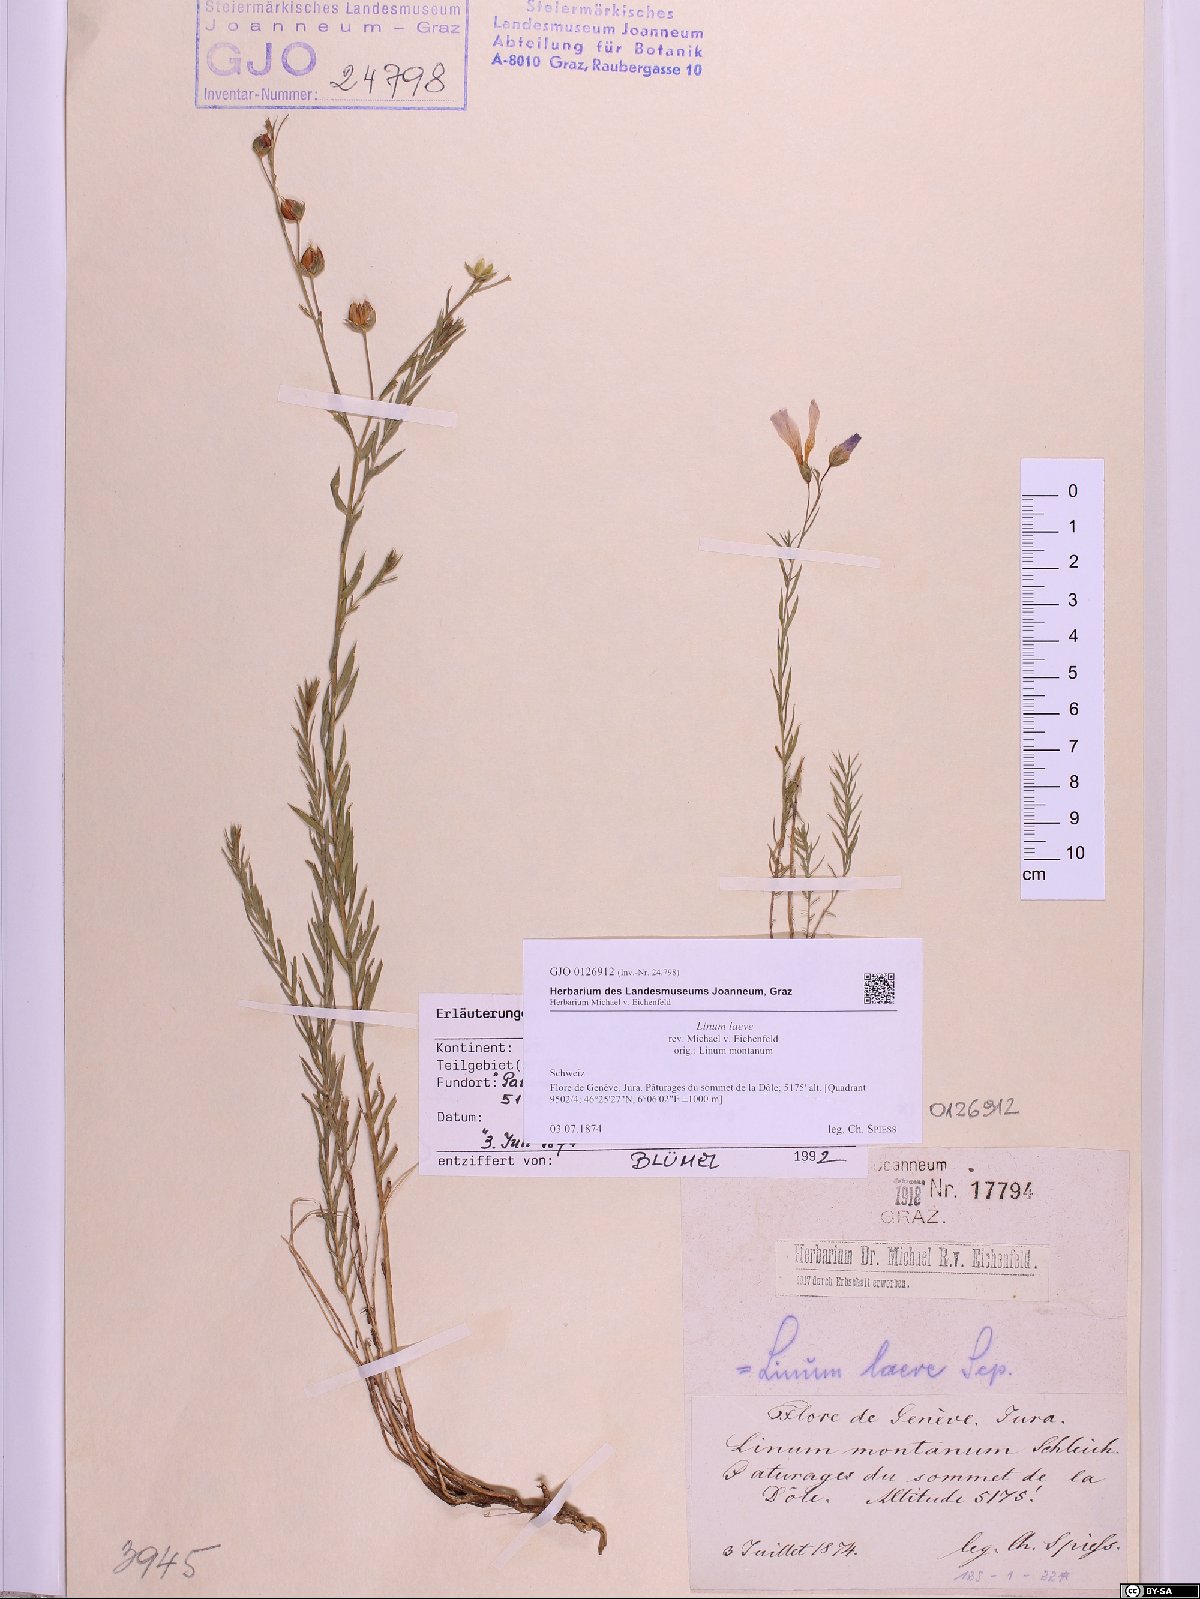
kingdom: Plantae
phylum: Tracheophyta
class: Magnoliopsida
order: Malpighiales
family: Linaceae
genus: Linum
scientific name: Linum alpinum
